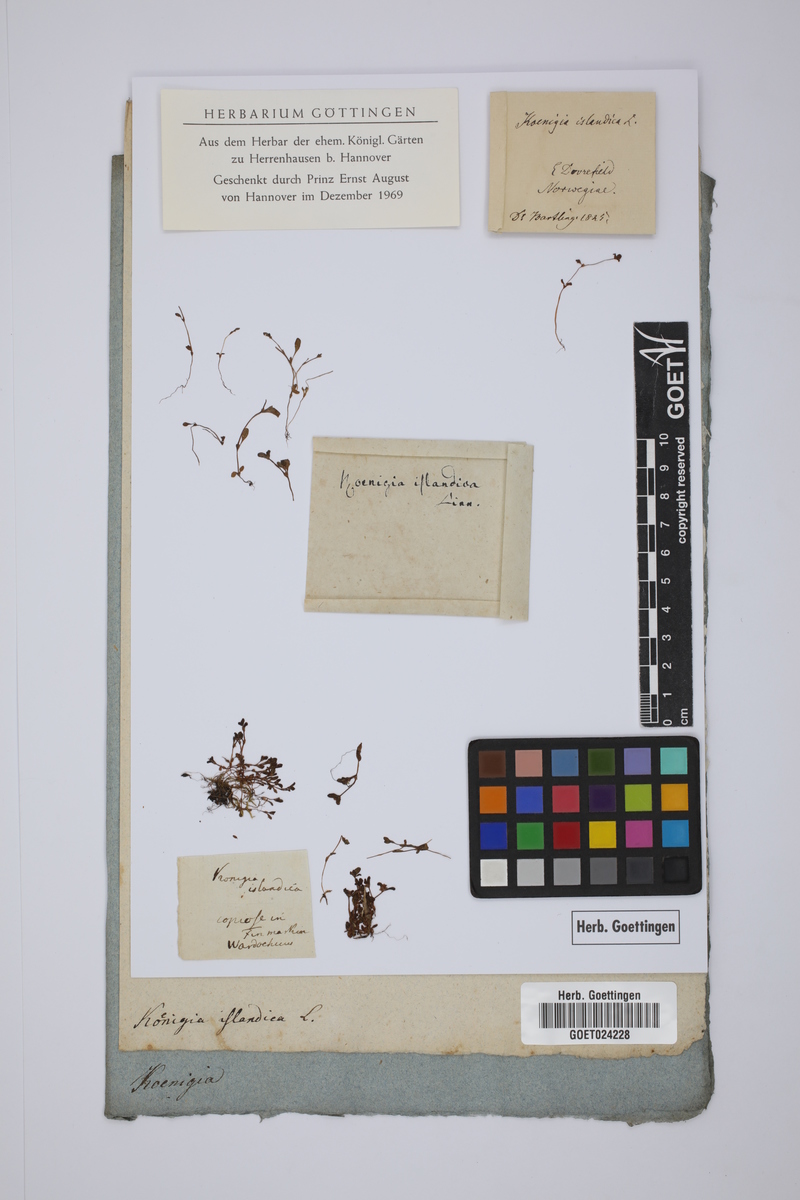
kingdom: Plantae
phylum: Tracheophyta
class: Magnoliopsida
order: Caryophyllales
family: Polygonaceae
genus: Koenigia
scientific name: Koenigia islandica
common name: Iceland-purslane
